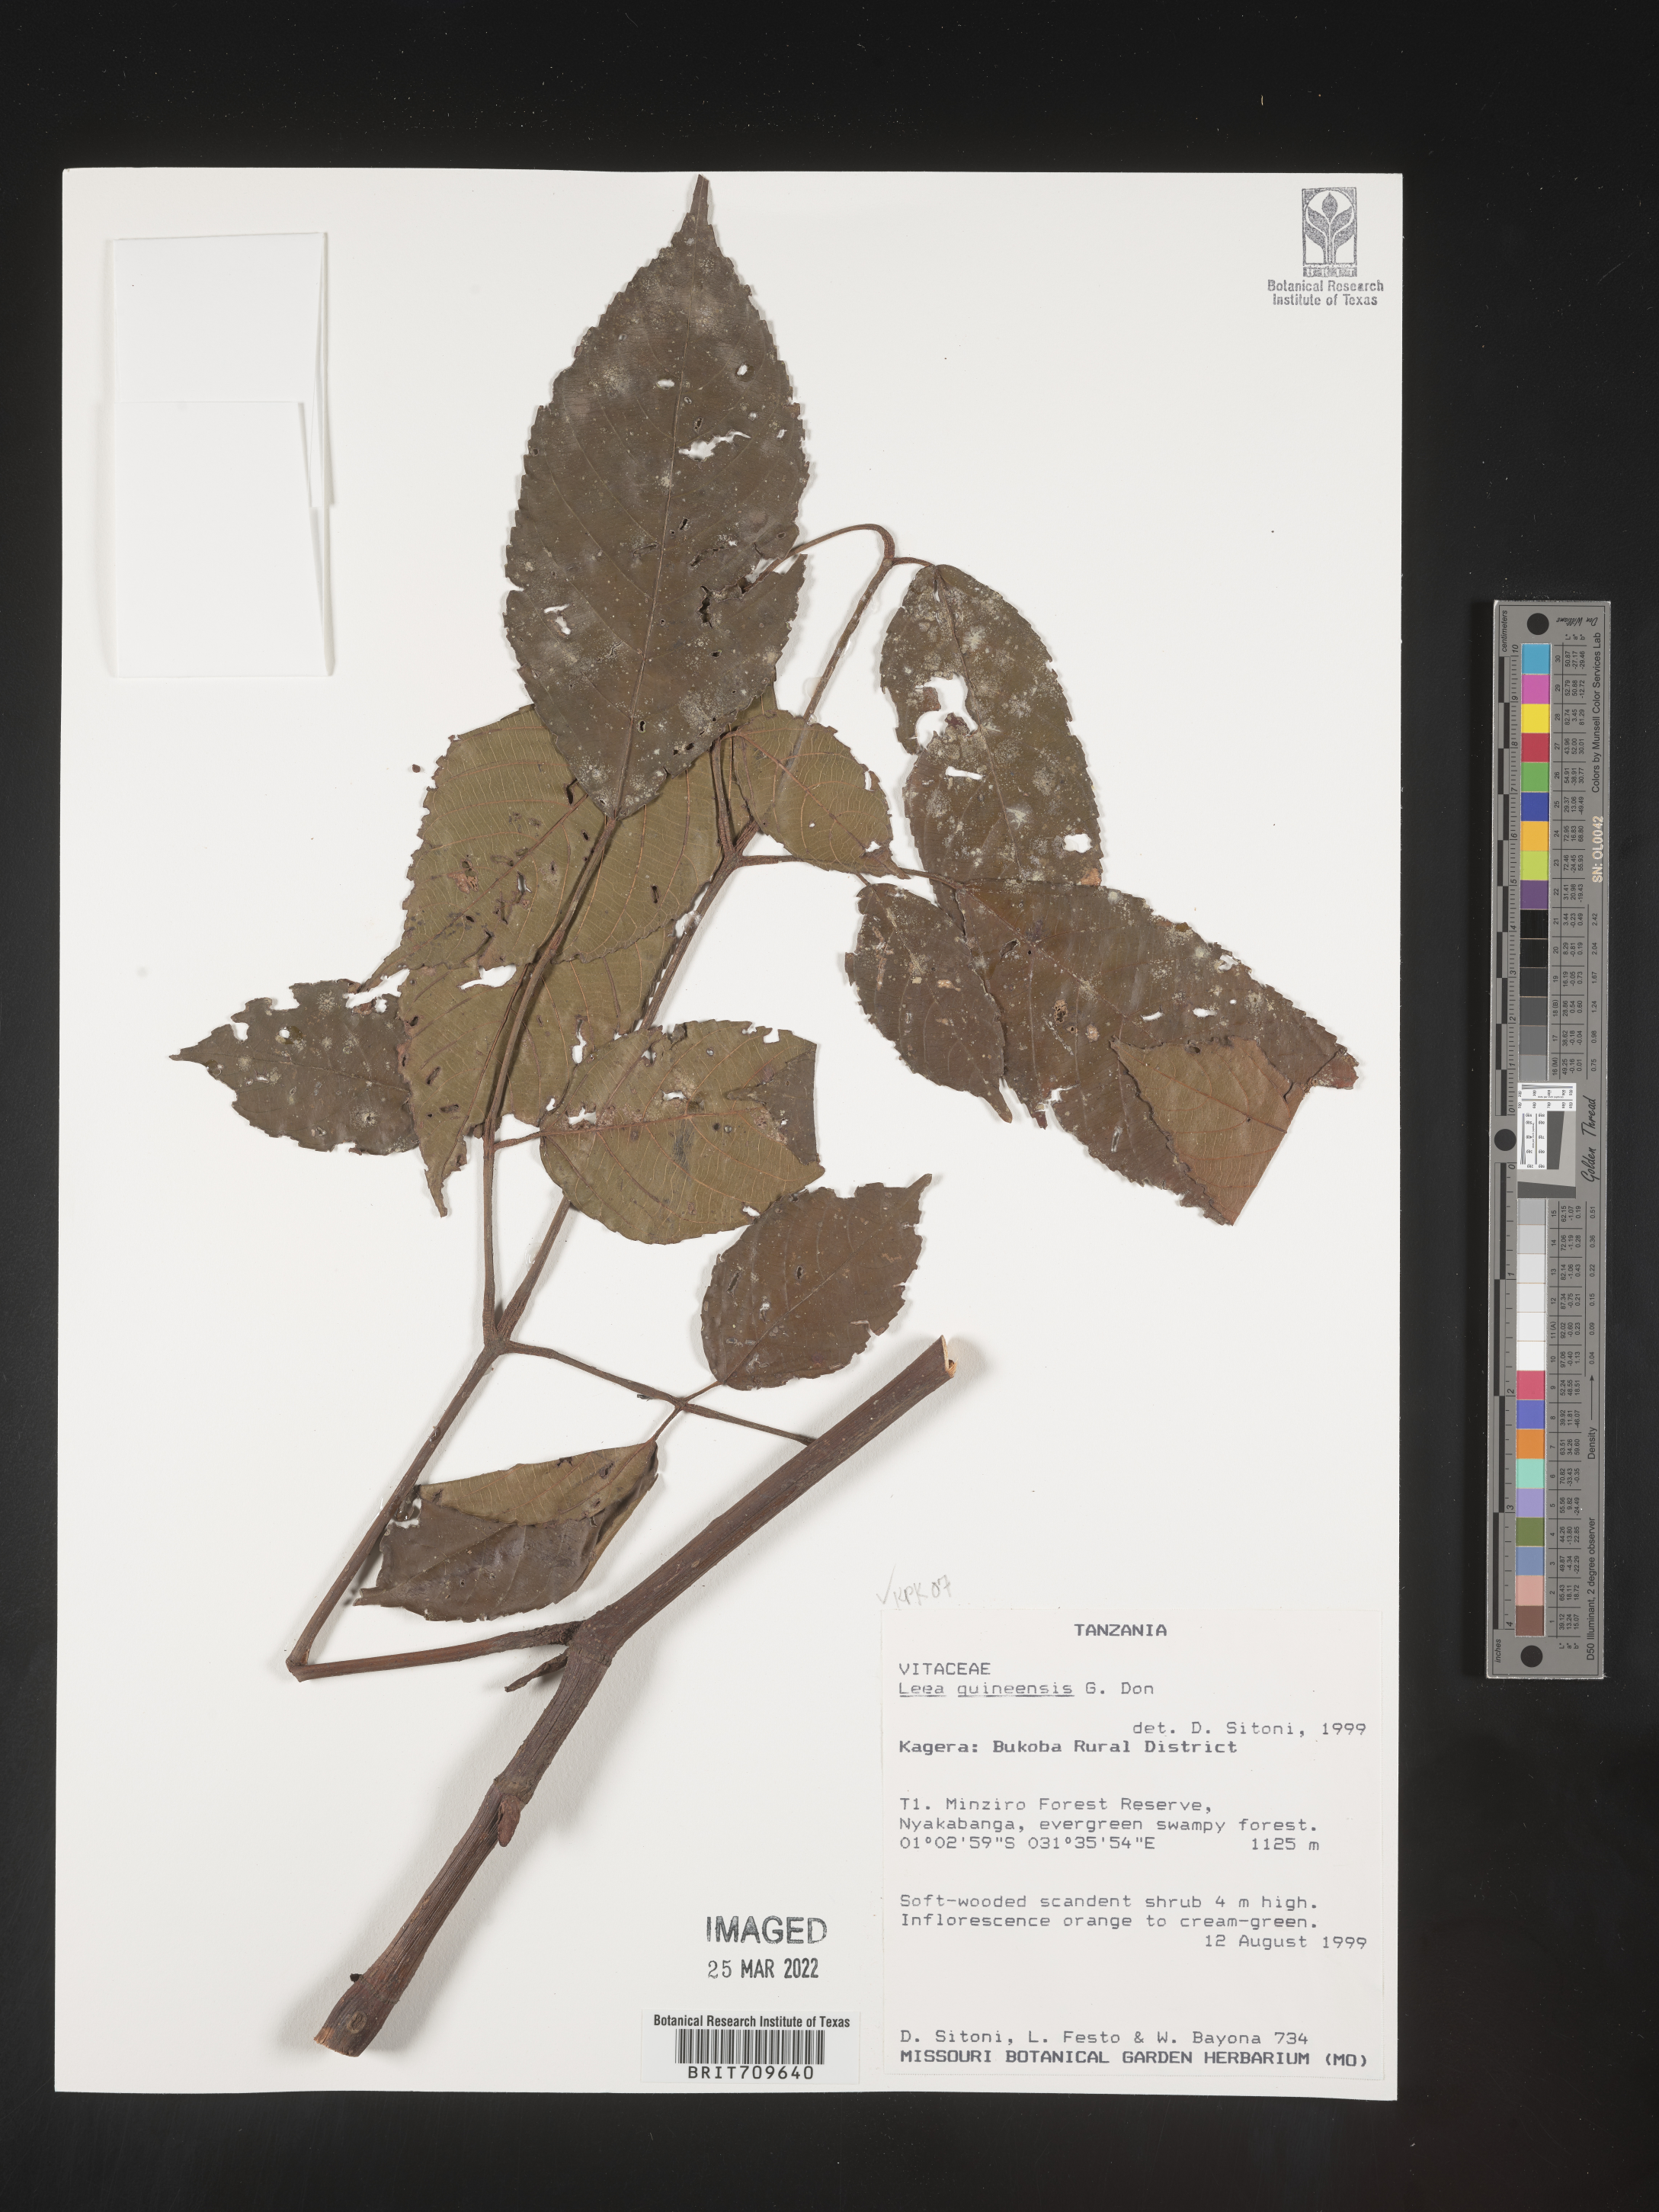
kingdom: Plantae
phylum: Tracheophyta
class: Magnoliopsida
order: Vitales
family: Vitaceae
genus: Leea
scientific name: Leea
